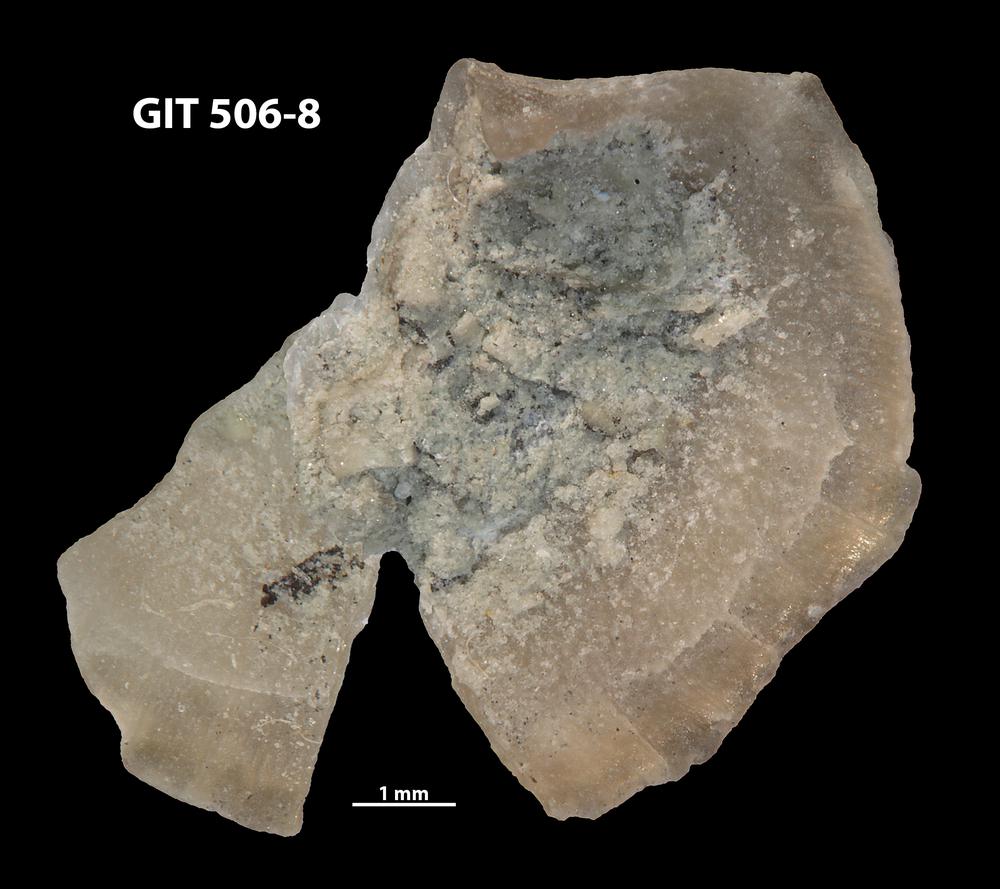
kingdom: Animalia
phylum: Brachiopoda
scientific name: Brachiopoda
